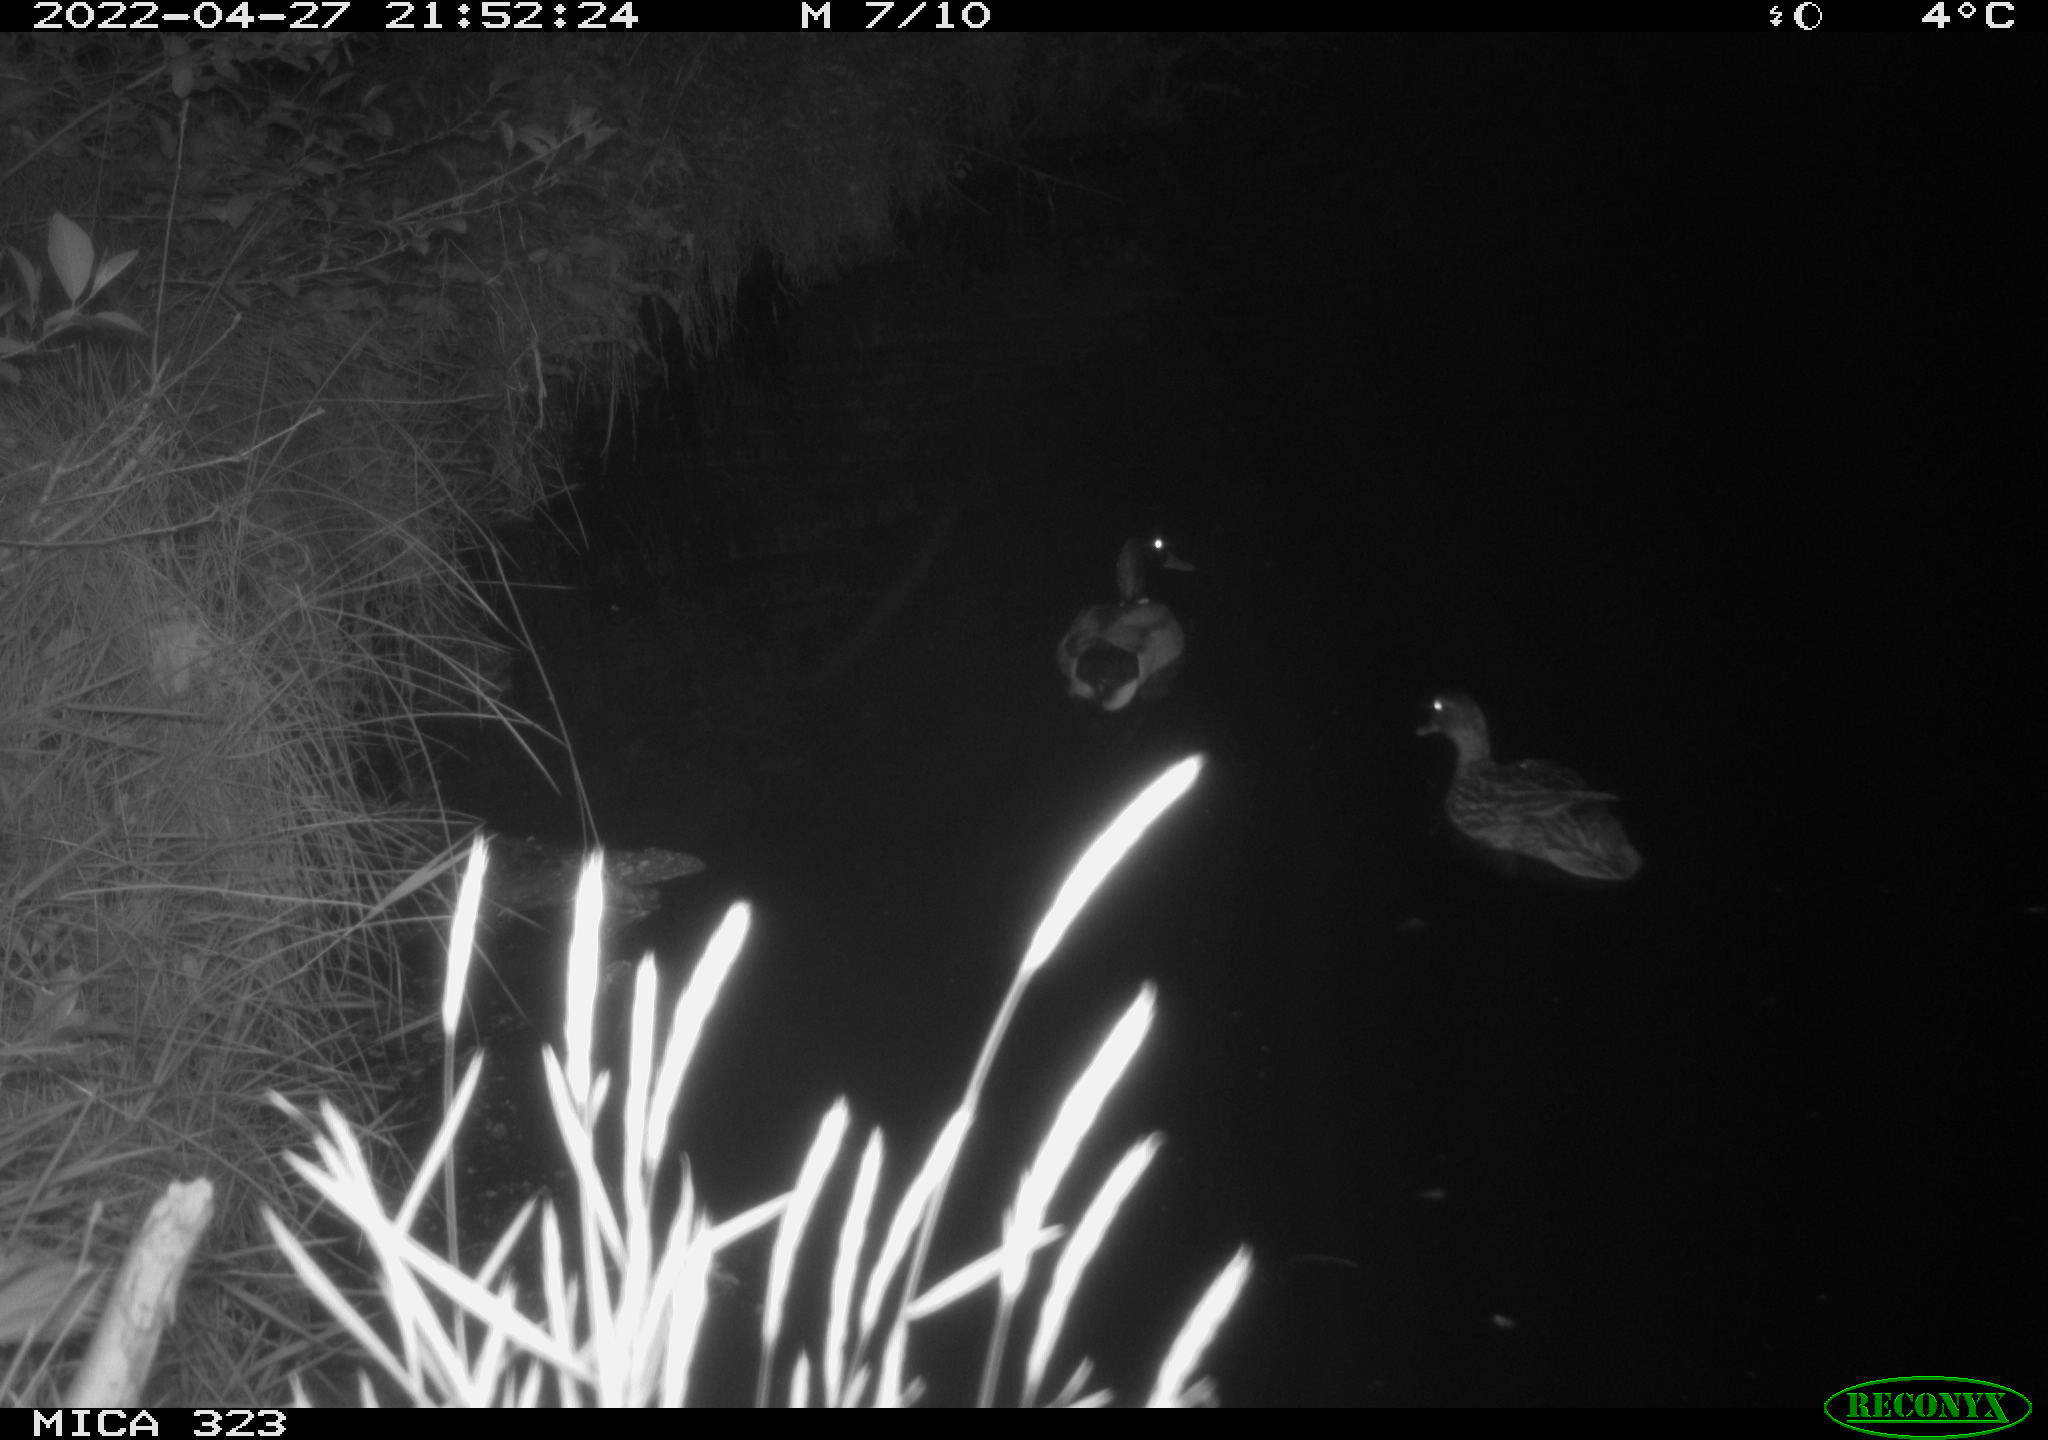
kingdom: Animalia
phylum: Chordata
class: Aves
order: Anseriformes
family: Anatidae
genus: Anas
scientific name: Anas platyrhynchos
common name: Mallard
